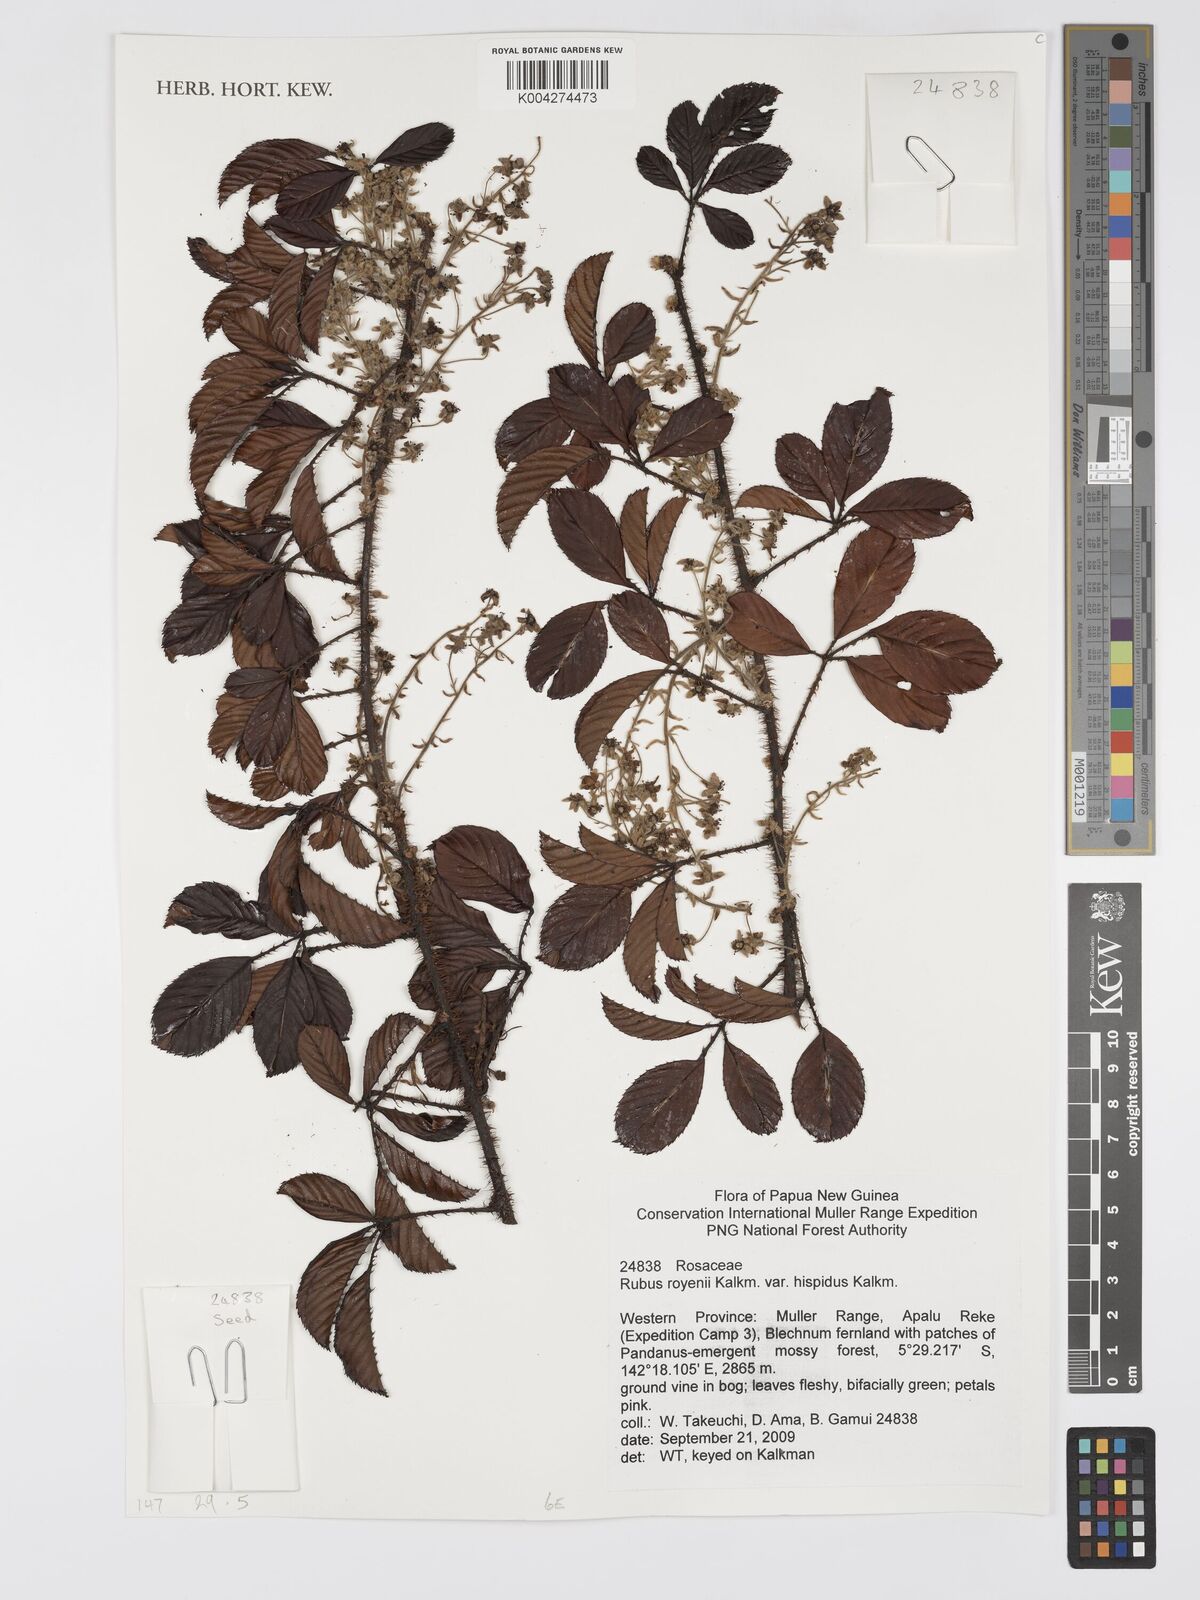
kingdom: Plantae
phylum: Tracheophyta
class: Magnoliopsida
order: Rosales
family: Rosaceae
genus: Rubus
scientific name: Rubus royenii
